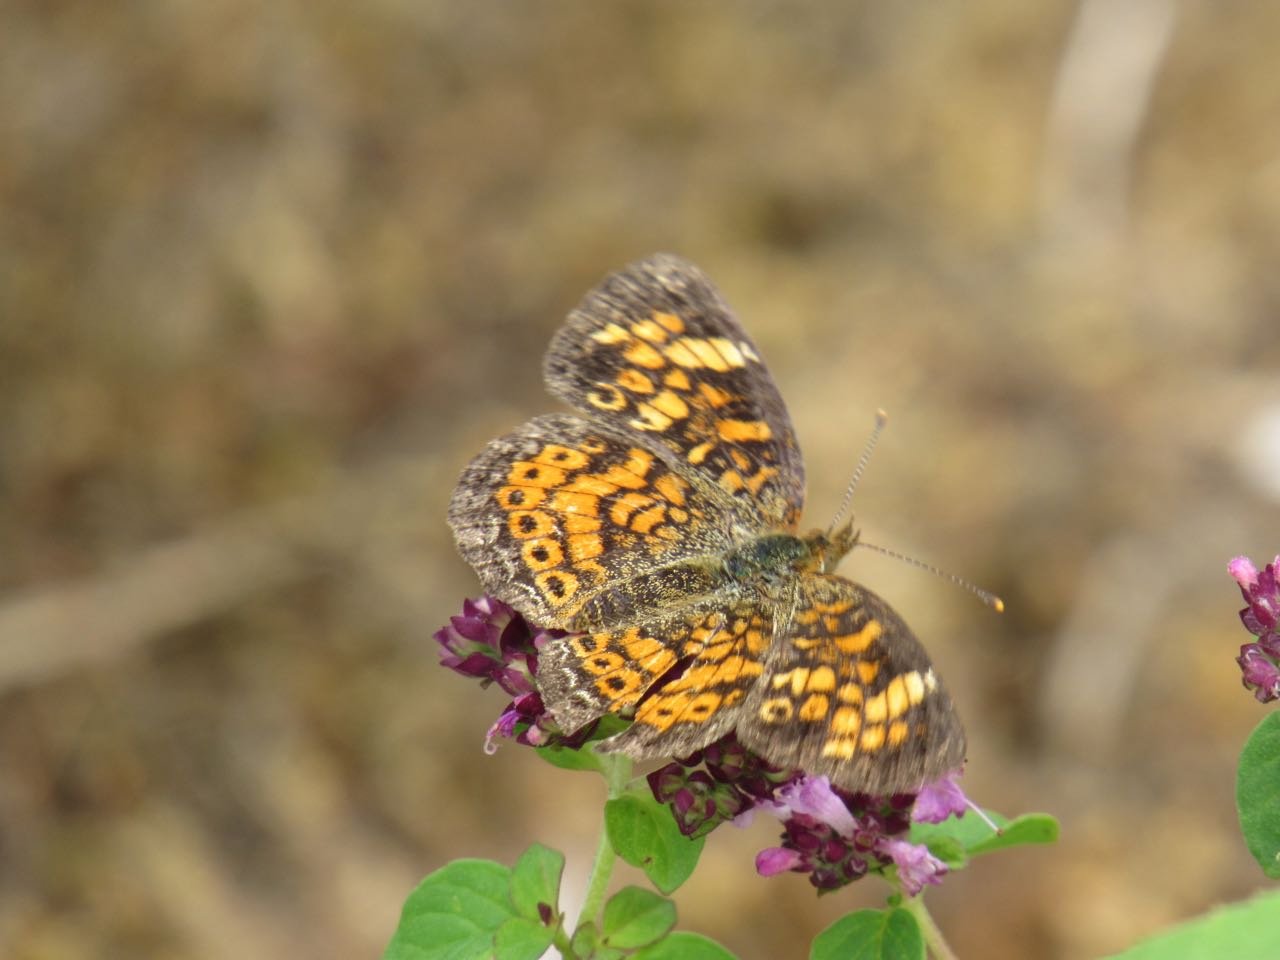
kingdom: Animalia
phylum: Arthropoda
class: Insecta
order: Lepidoptera
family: Nymphalidae
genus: Phyciodes
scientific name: Phyciodes tharos
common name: Pearl Crescent
